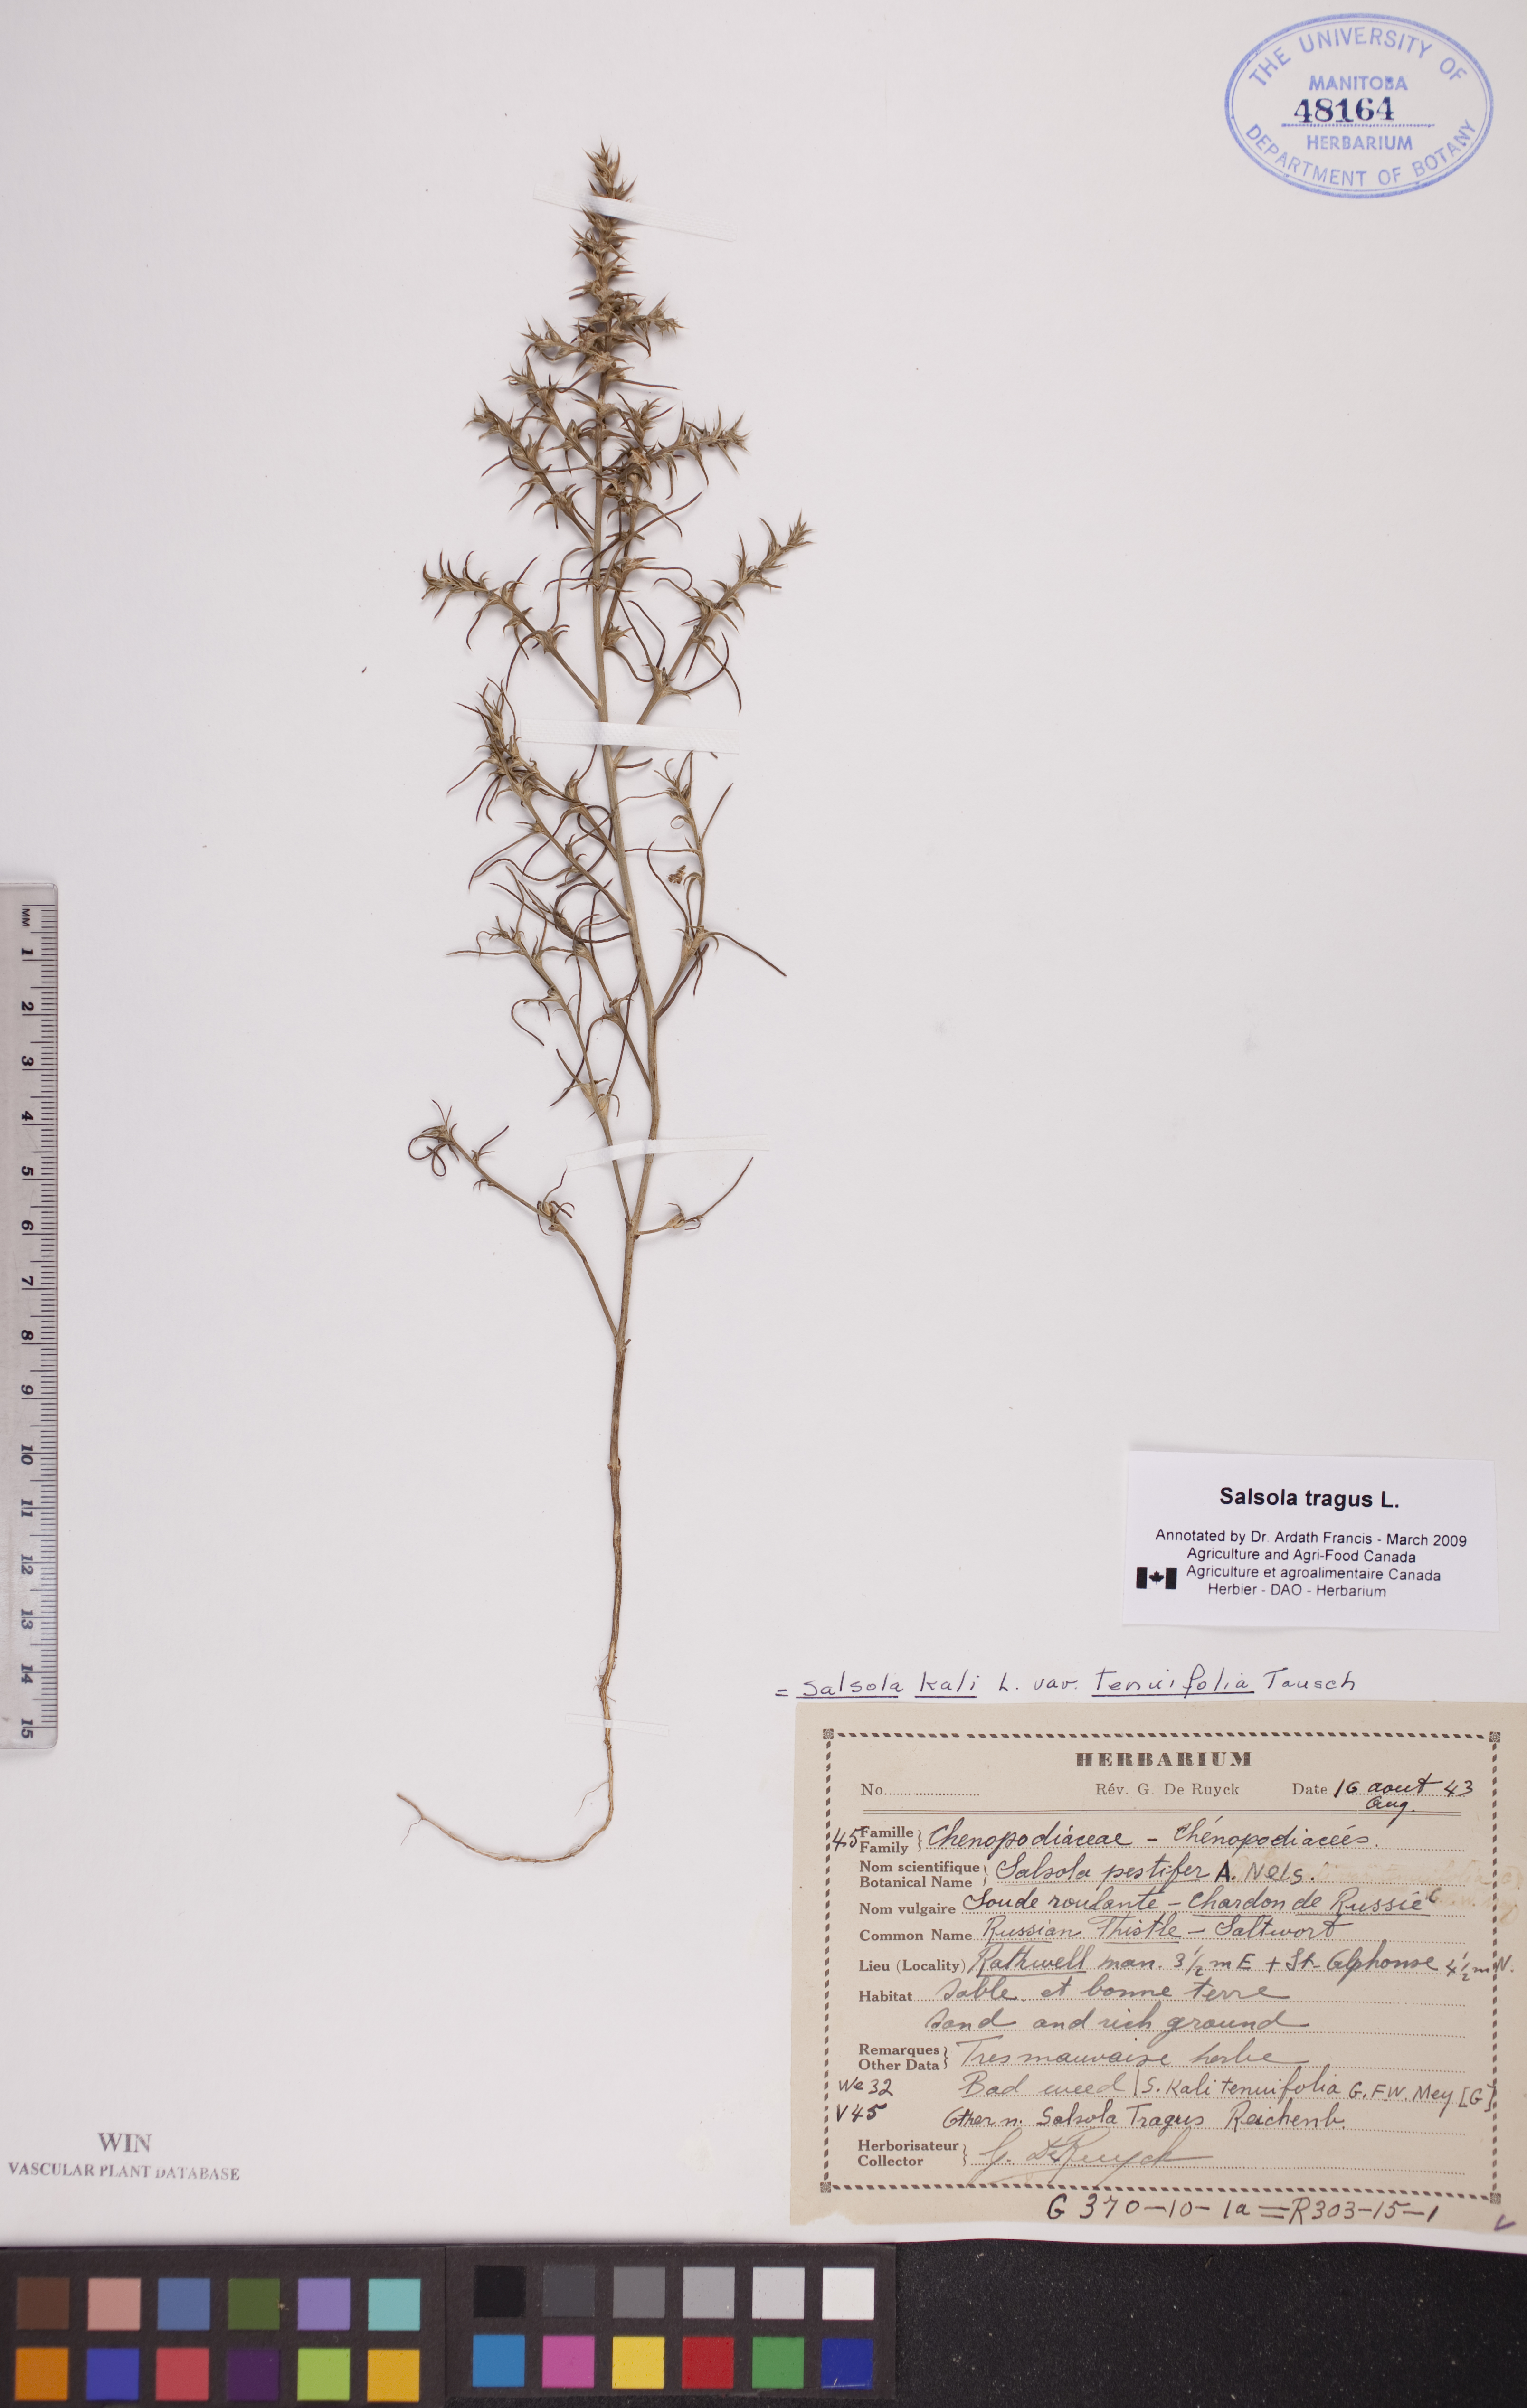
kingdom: Plantae
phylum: Tracheophyta
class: Magnoliopsida
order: Caryophyllales
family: Amaranthaceae
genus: Salsola
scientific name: Salsola tragus
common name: Prickly russian thistle
